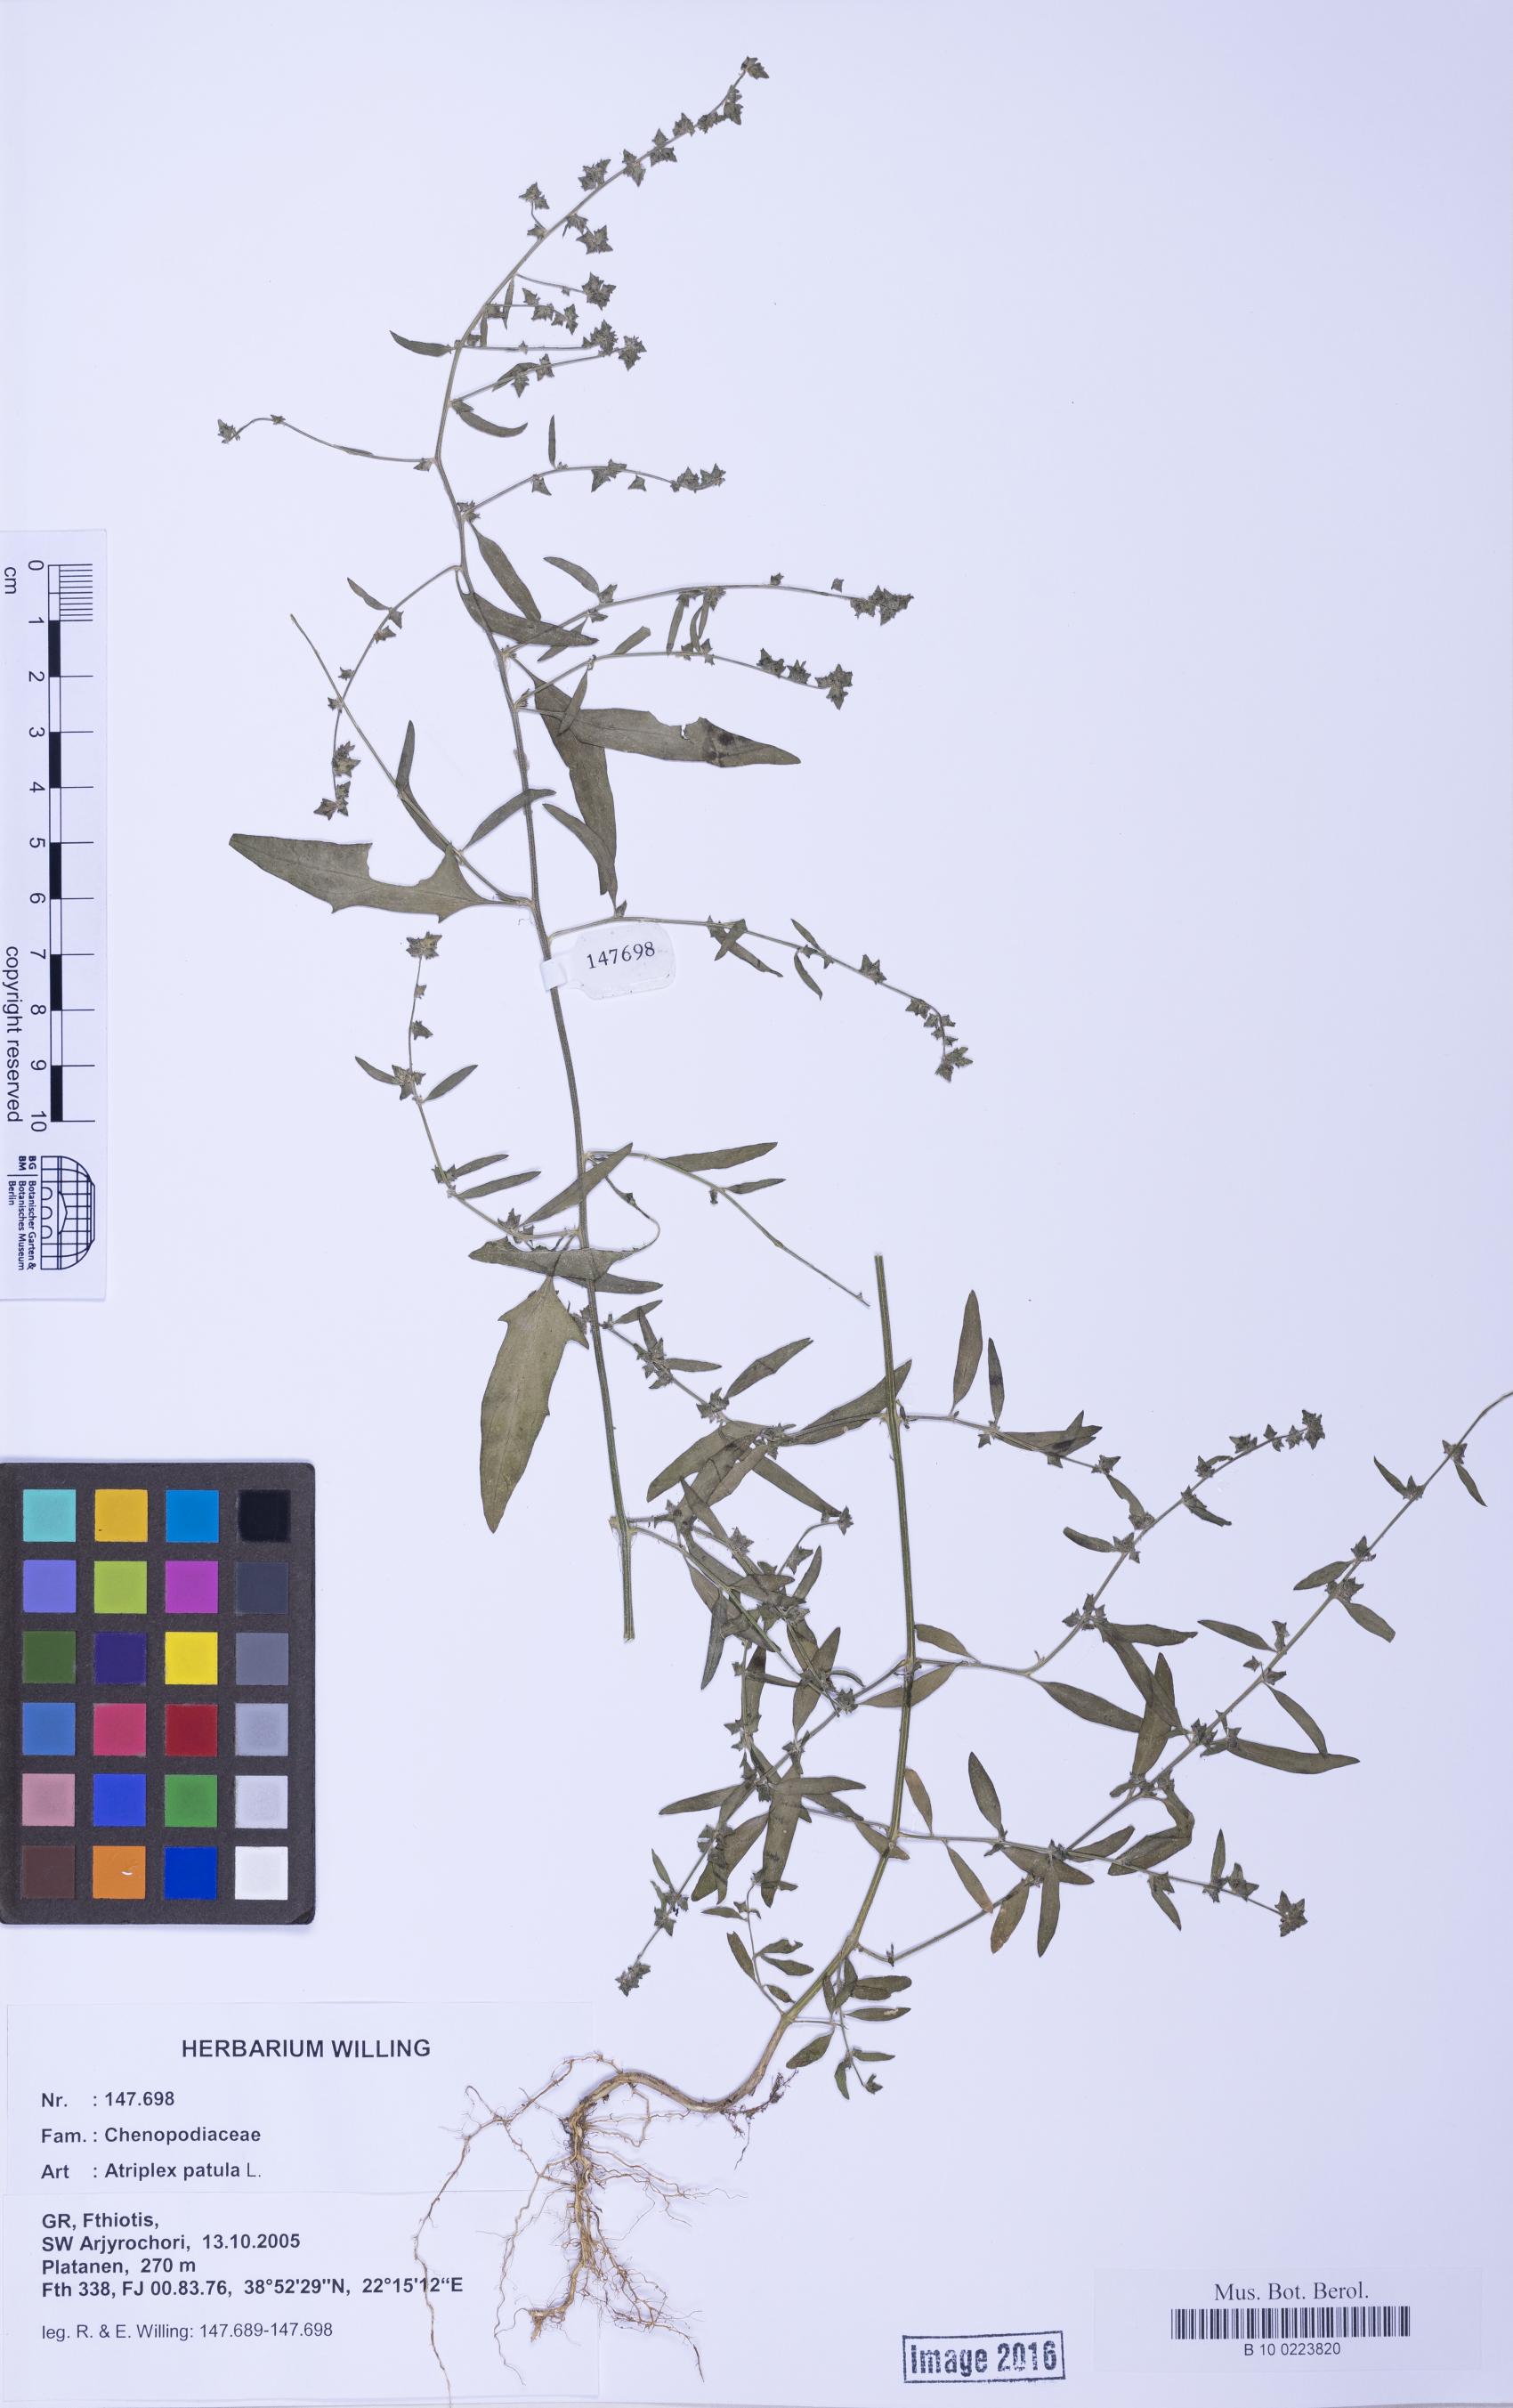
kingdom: Plantae
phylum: Tracheophyta
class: Magnoliopsida
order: Caryophyllales
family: Amaranthaceae
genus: Atriplex
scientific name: Atriplex patula
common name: Common orache
